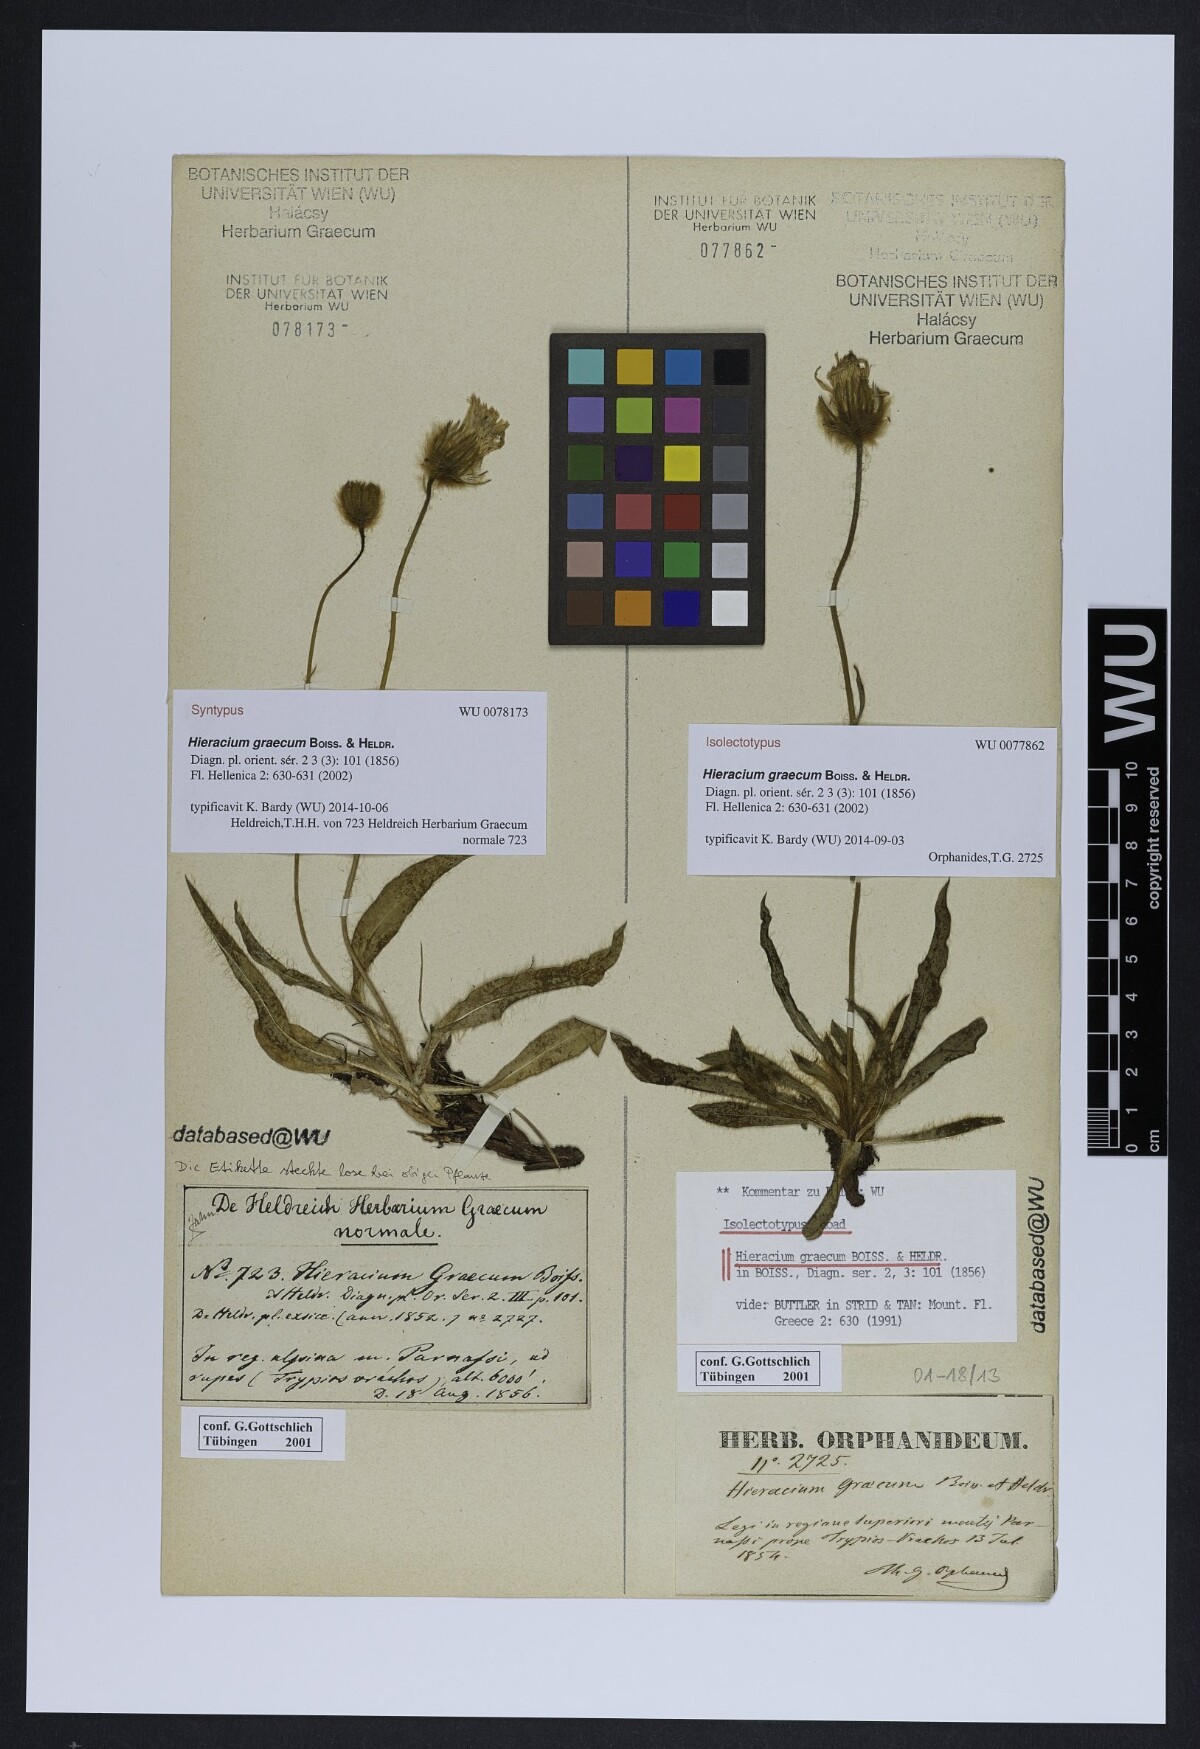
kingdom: Plantae
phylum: Tracheophyta
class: Magnoliopsida
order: Asterales
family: Asteraceae
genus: Hieracium
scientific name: Hieracium graecum
